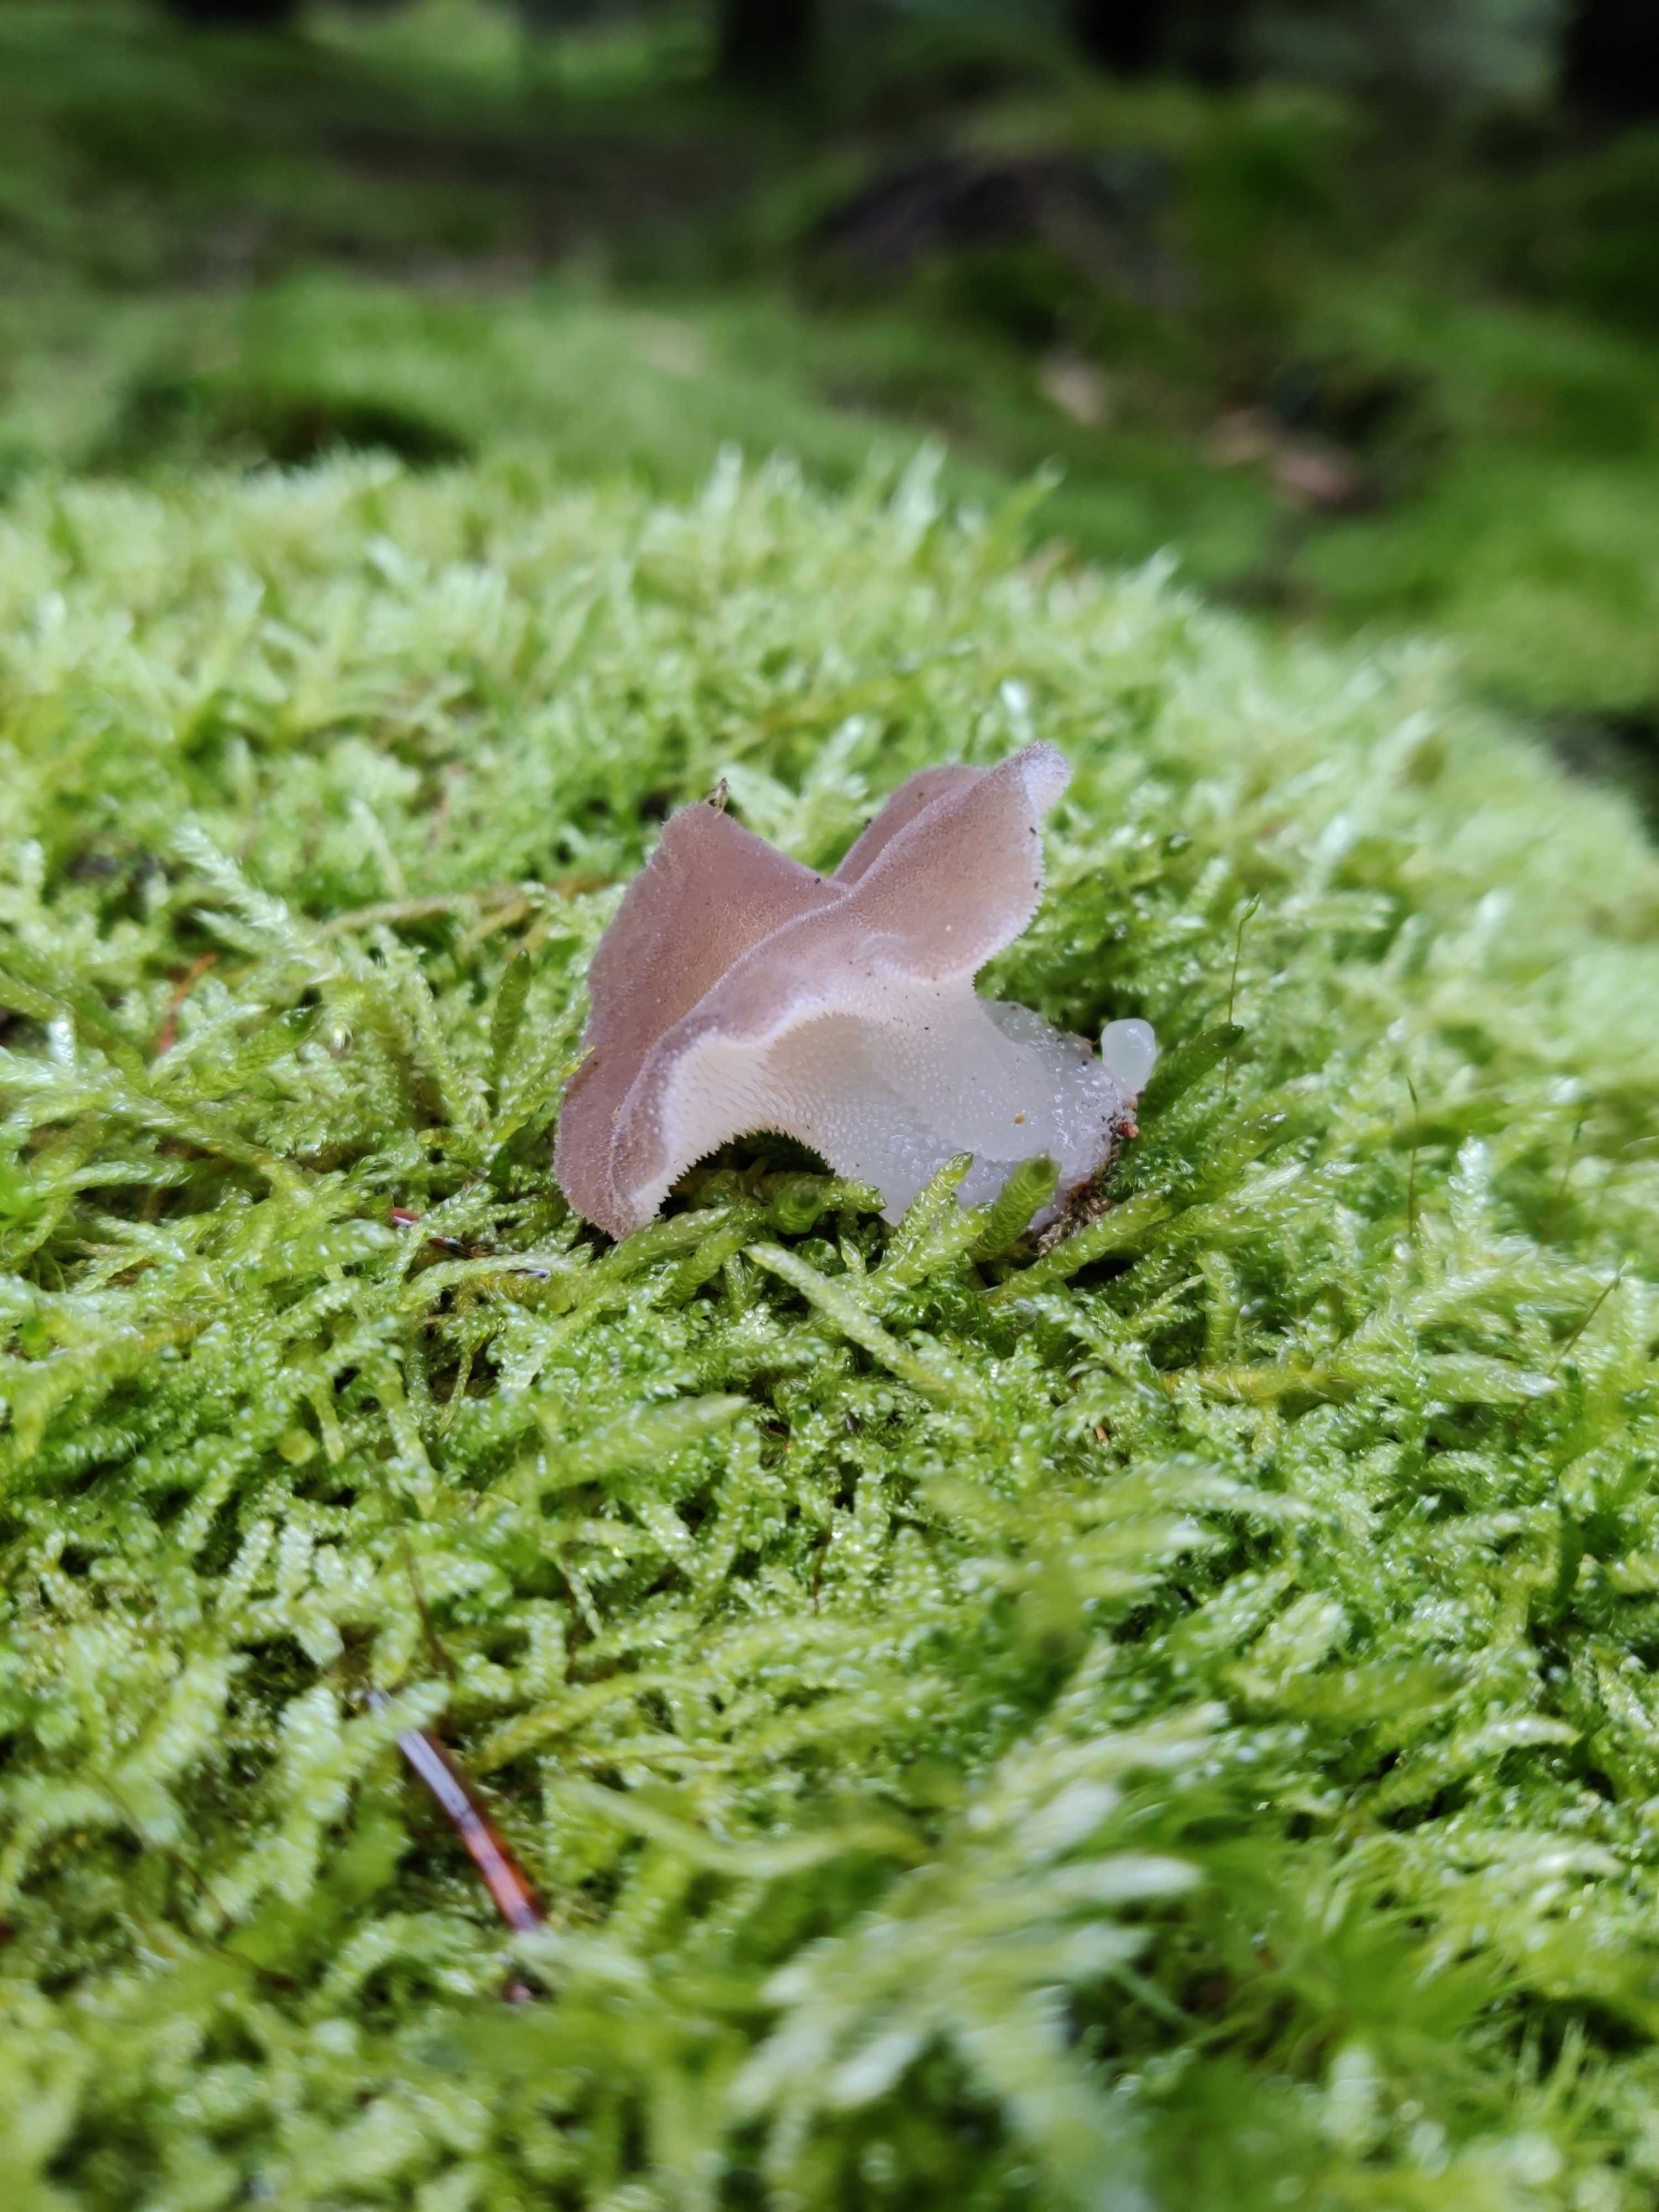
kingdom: Fungi
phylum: Basidiomycota
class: Agaricomycetes
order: Auriculariales
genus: Pseudohydnum
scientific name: Pseudohydnum gelatinosum
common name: bævretand
